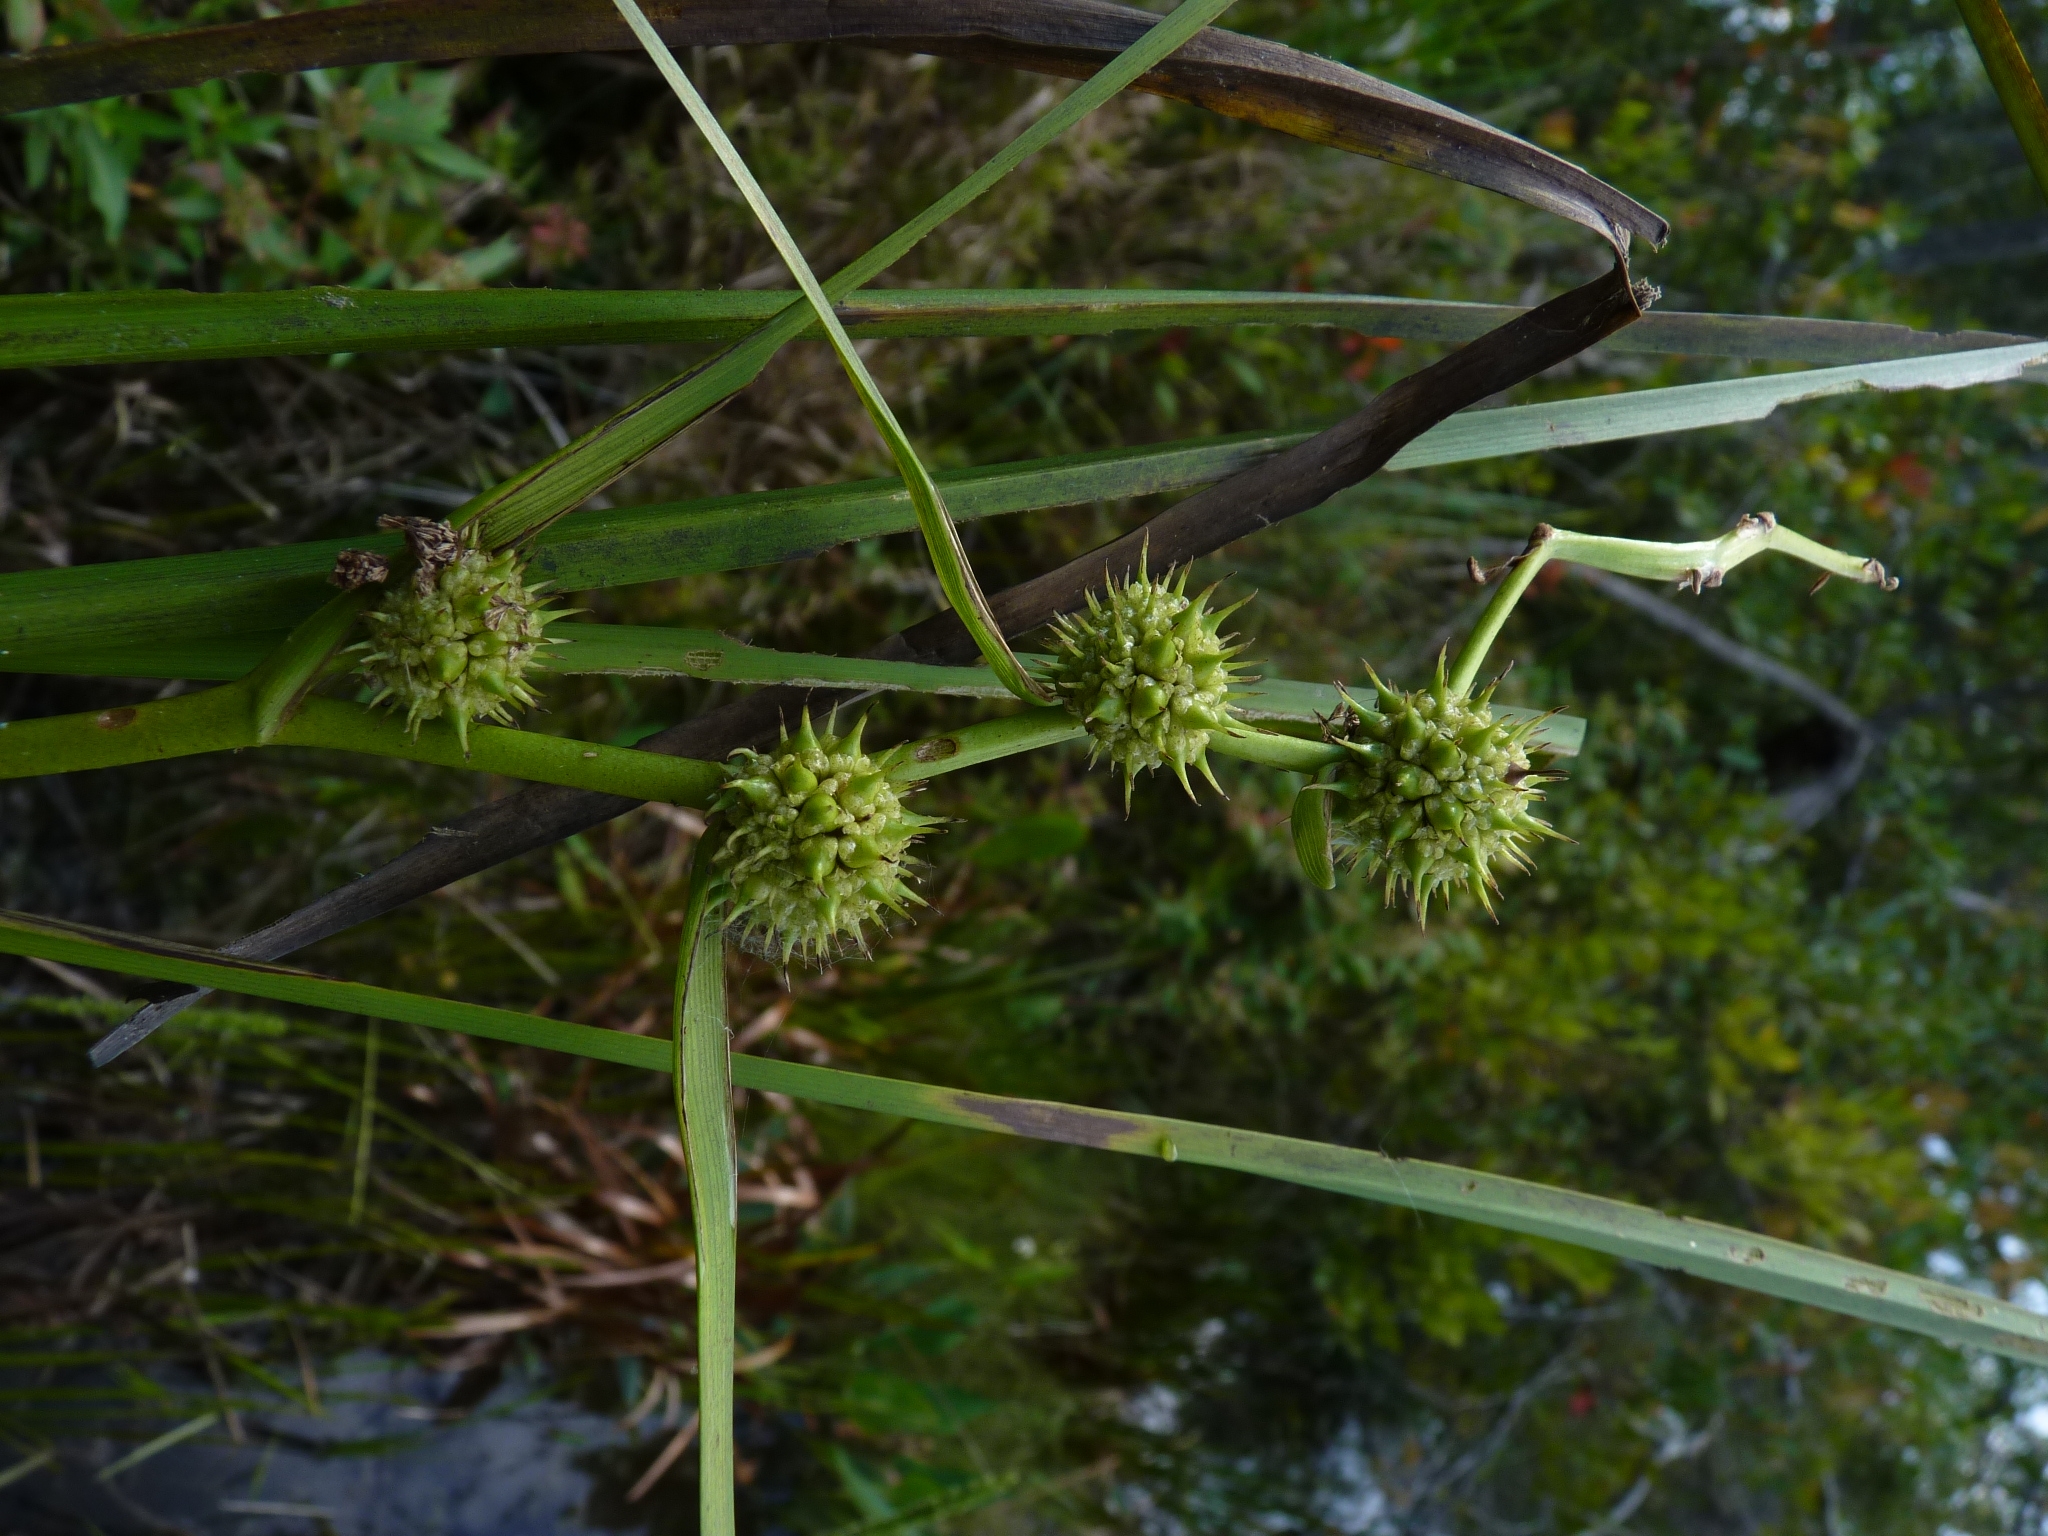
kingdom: Plantae
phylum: Tracheophyta
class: Liliopsida
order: Poales
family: Typhaceae
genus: Sparganium
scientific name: Sparganium americanum
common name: American bur-reed
